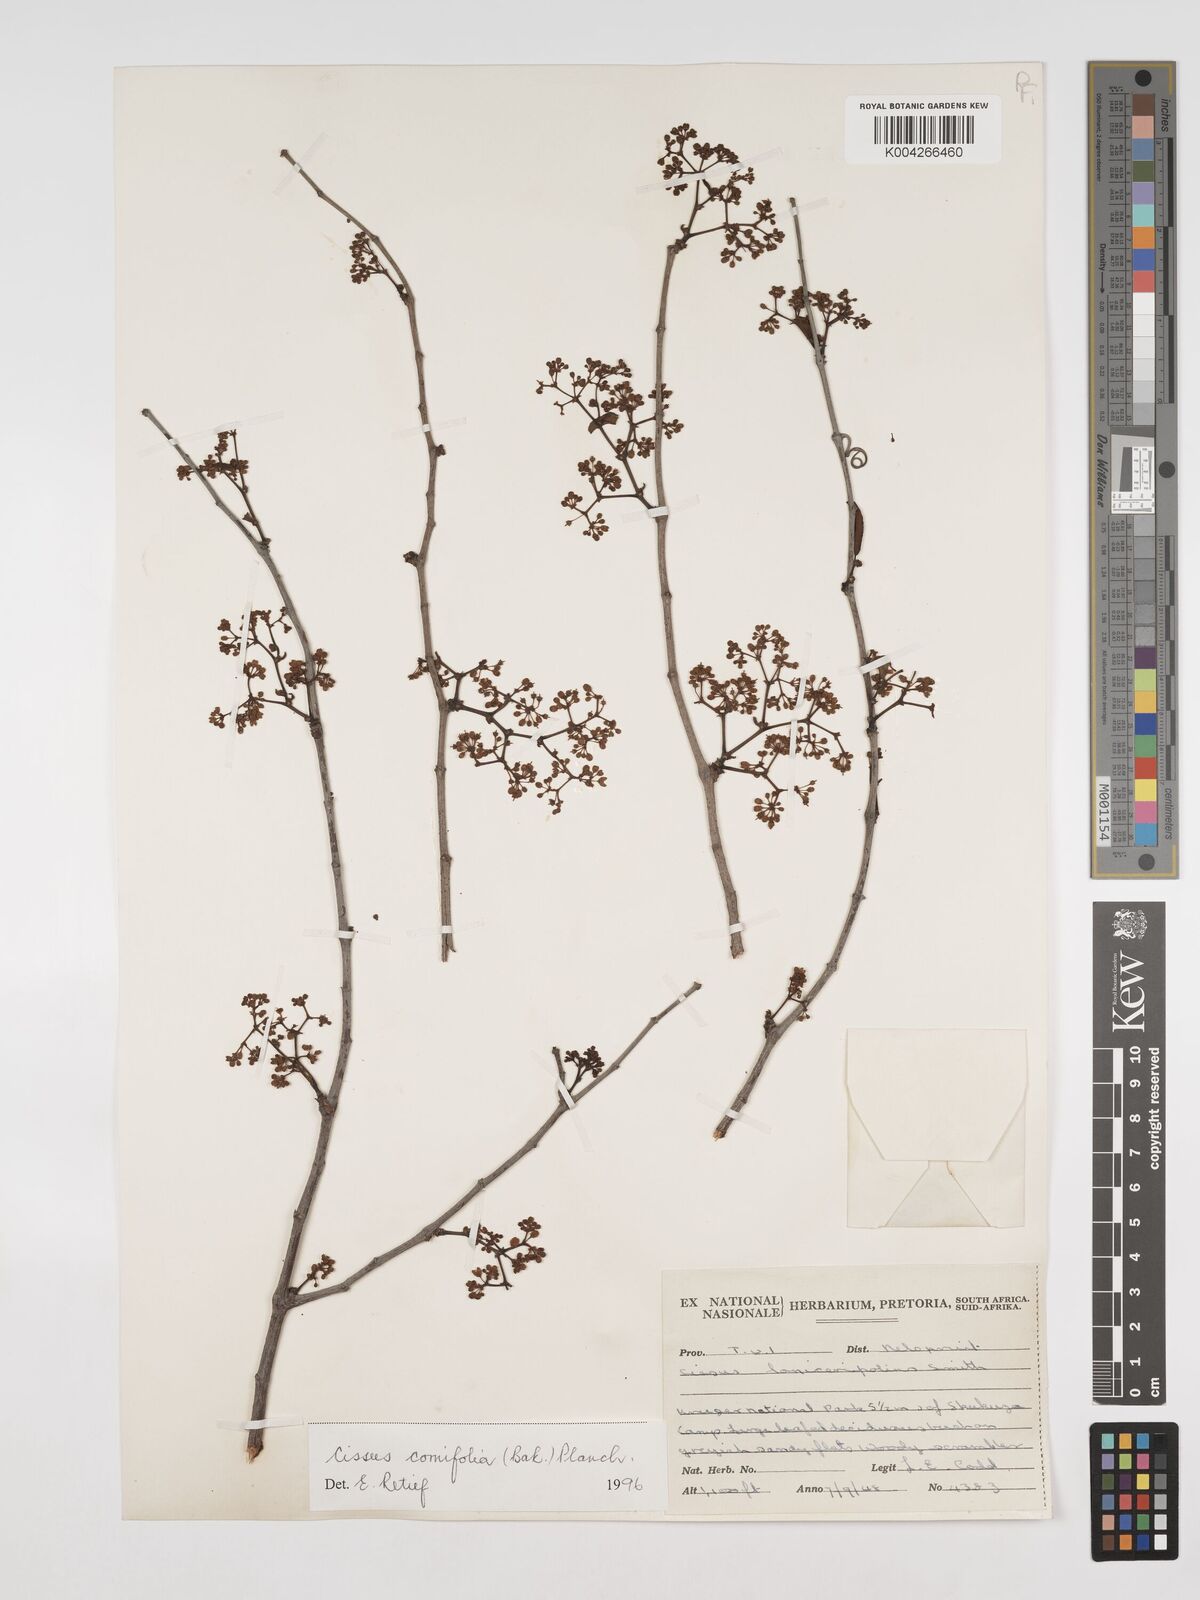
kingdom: Plantae
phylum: Tracheophyta
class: Magnoliopsida
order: Vitales
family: Vitaceae
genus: Cissus
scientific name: Cissus cornifolia
